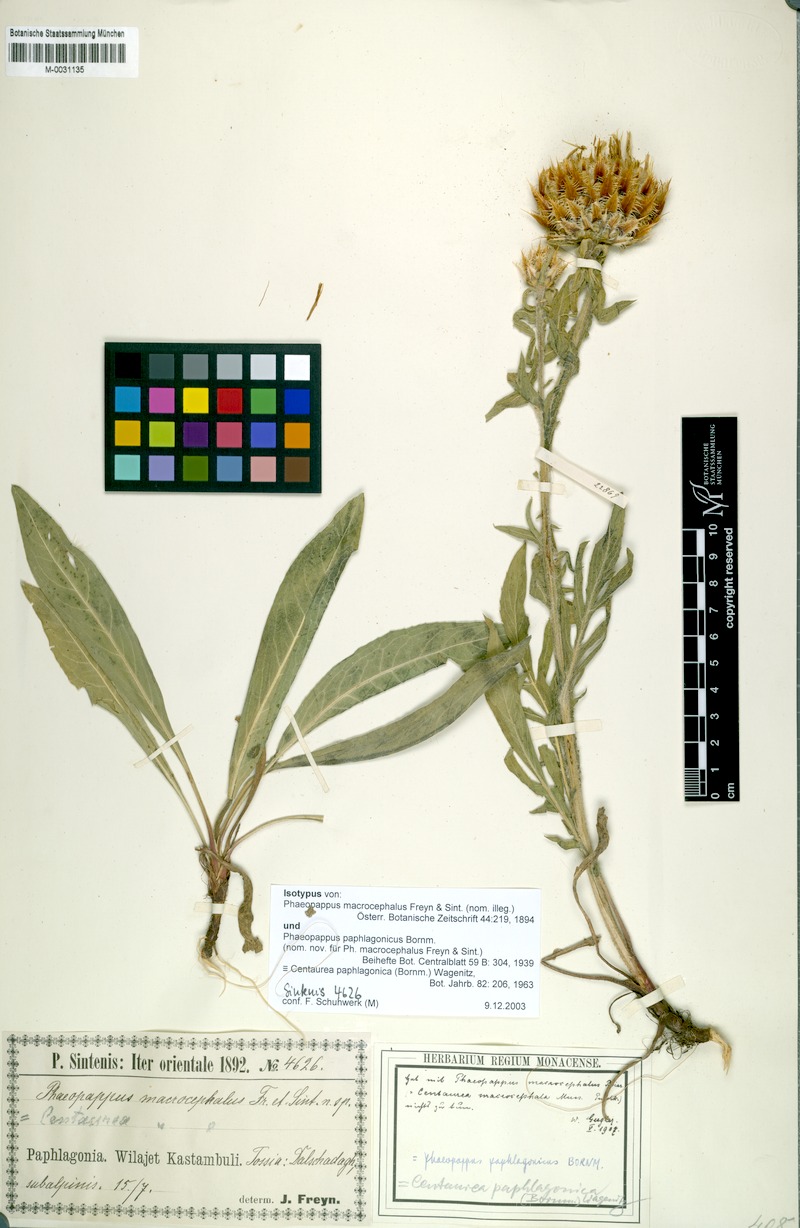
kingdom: Plantae
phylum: Tracheophyta
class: Magnoliopsida
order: Asterales
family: Asteraceae
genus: Centaurea
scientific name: Centaurea paphlagonica
